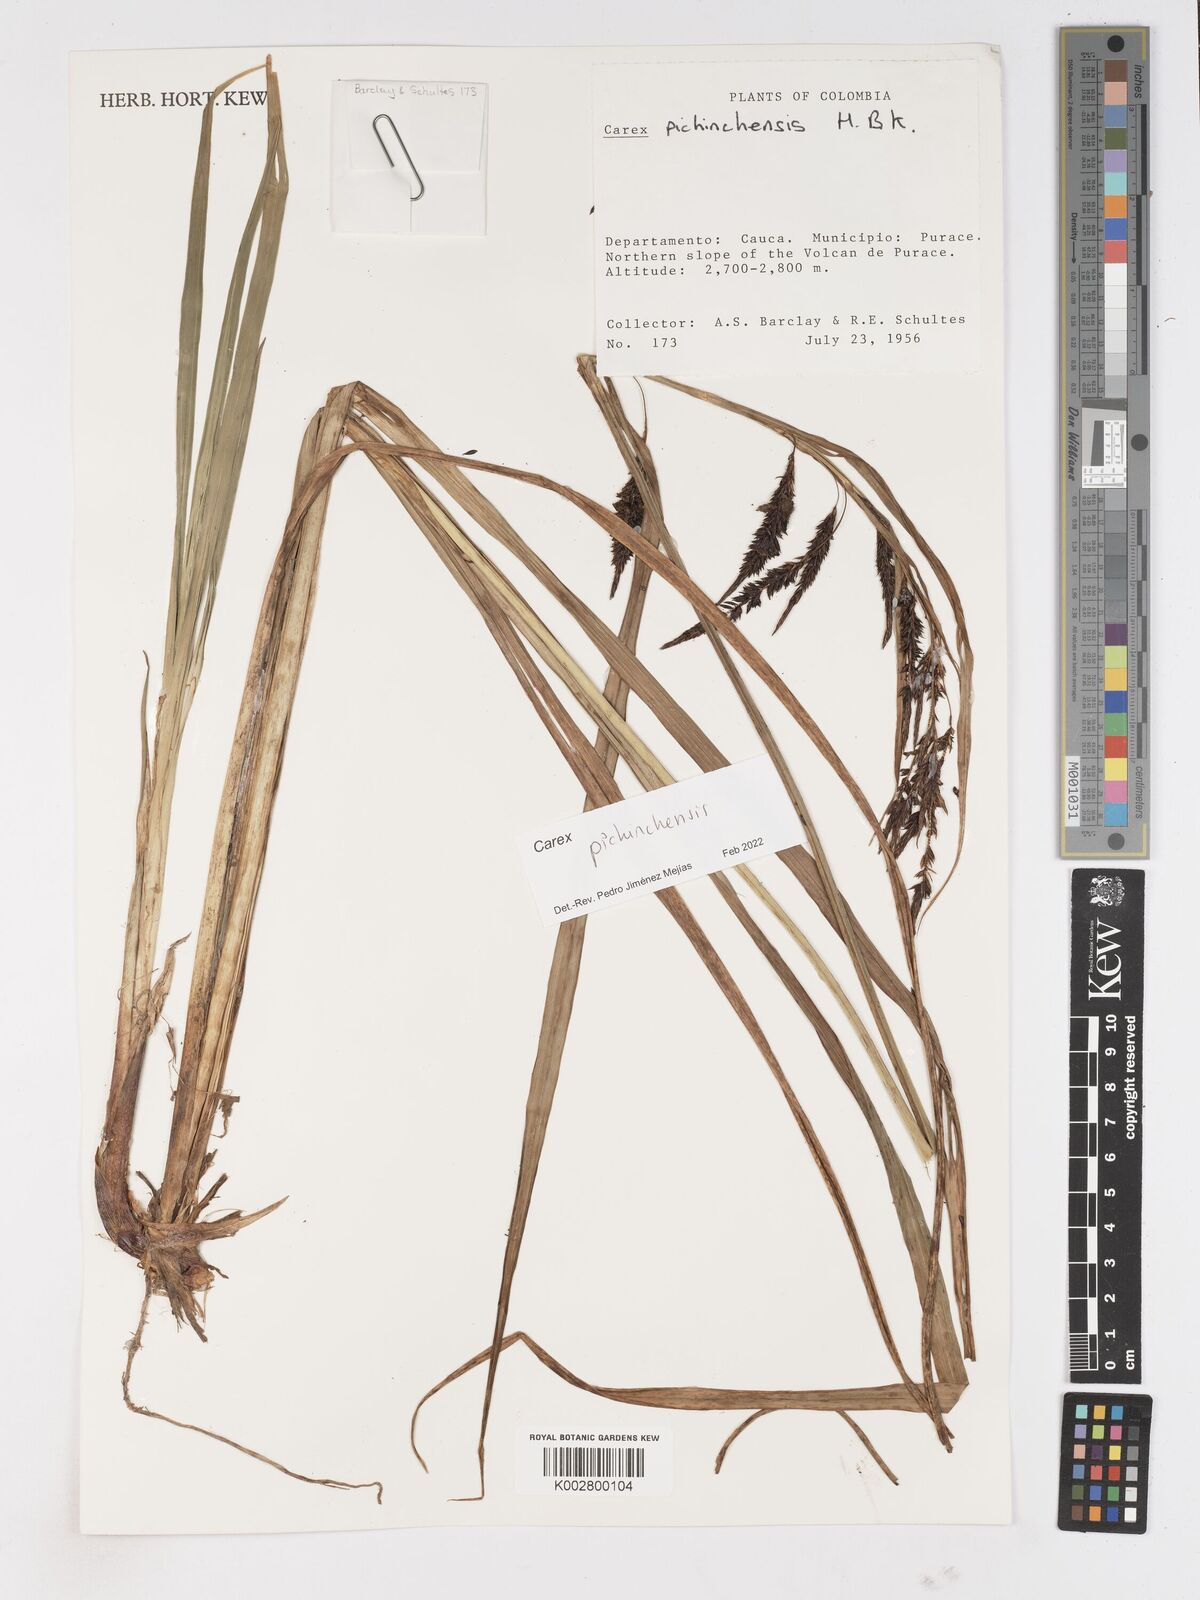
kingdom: Plantae
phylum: Tracheophyta
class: Liliopsida
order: Poales
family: Cyperaceae
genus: Carex
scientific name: Carex pichinchensis
